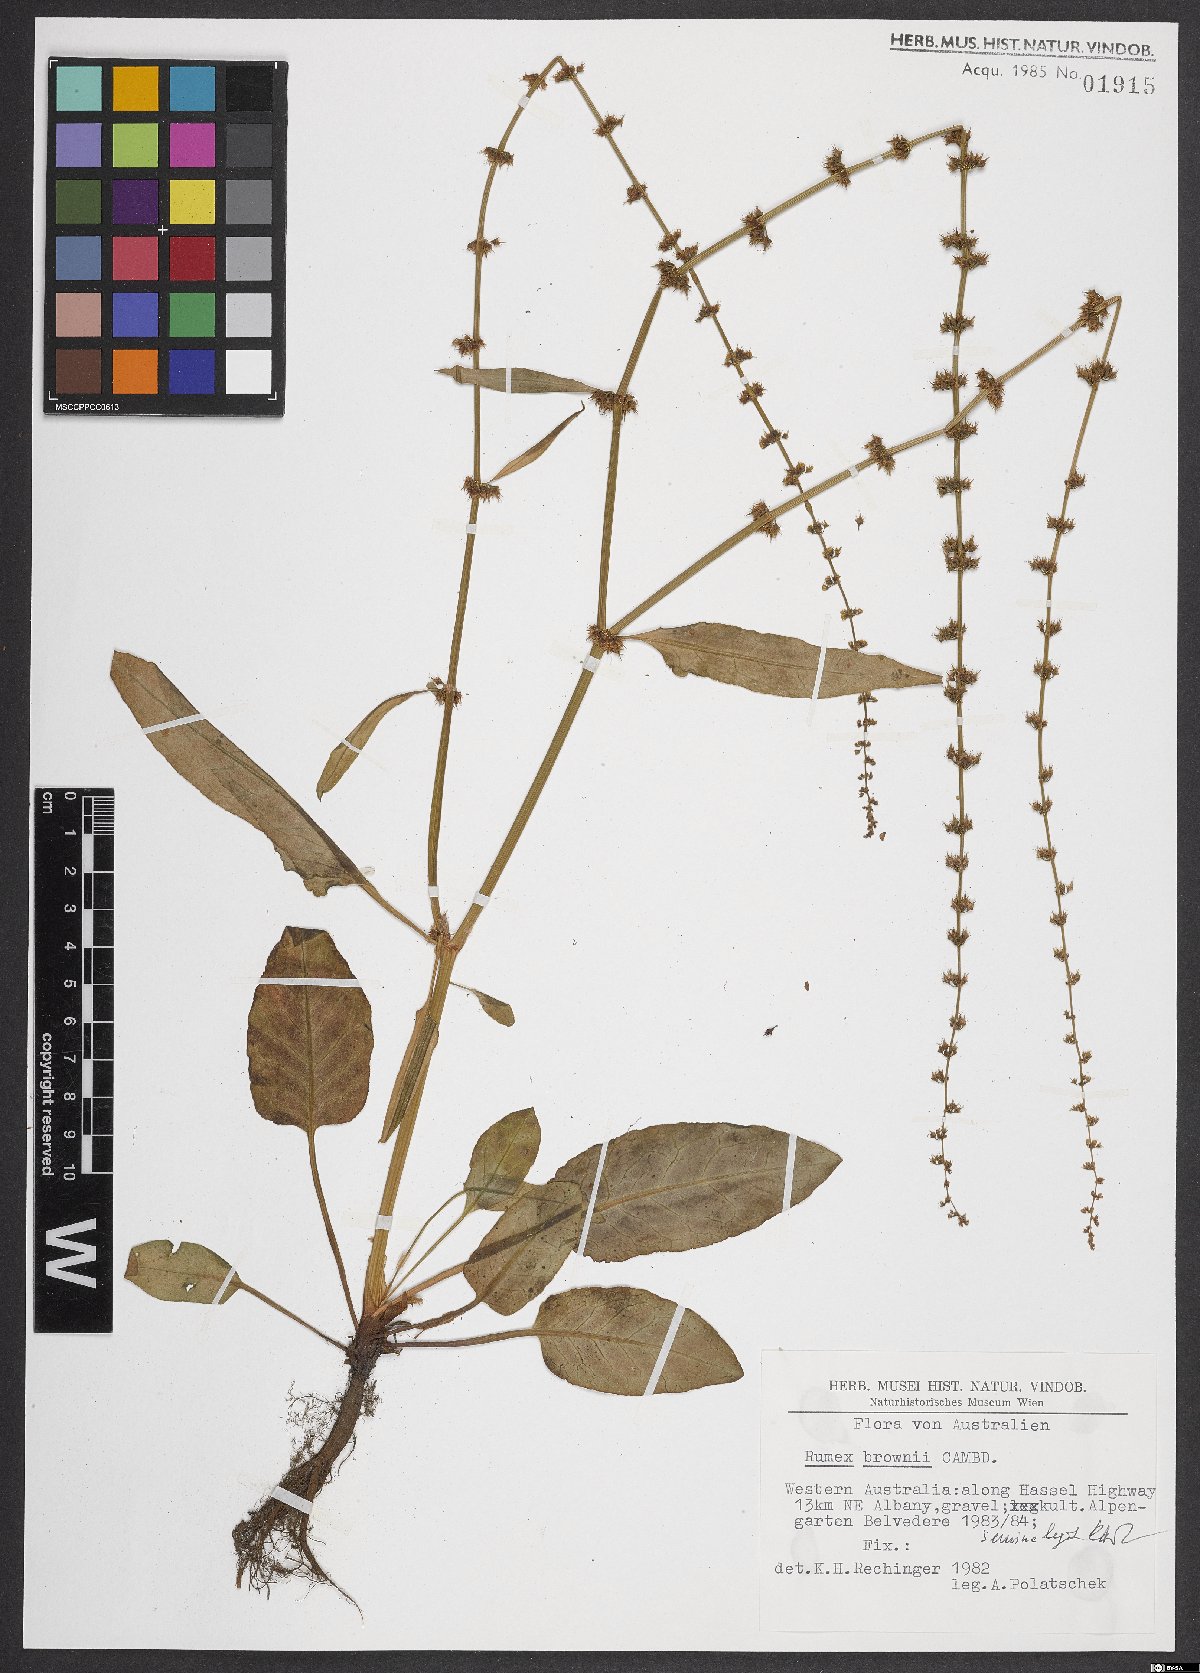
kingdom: Plantae
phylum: Tracheophyta
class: Magnoliopsida
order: Caryophyllales
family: Polygonaceae
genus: Rumex
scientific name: Rumex brownii
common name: Hooked dock
